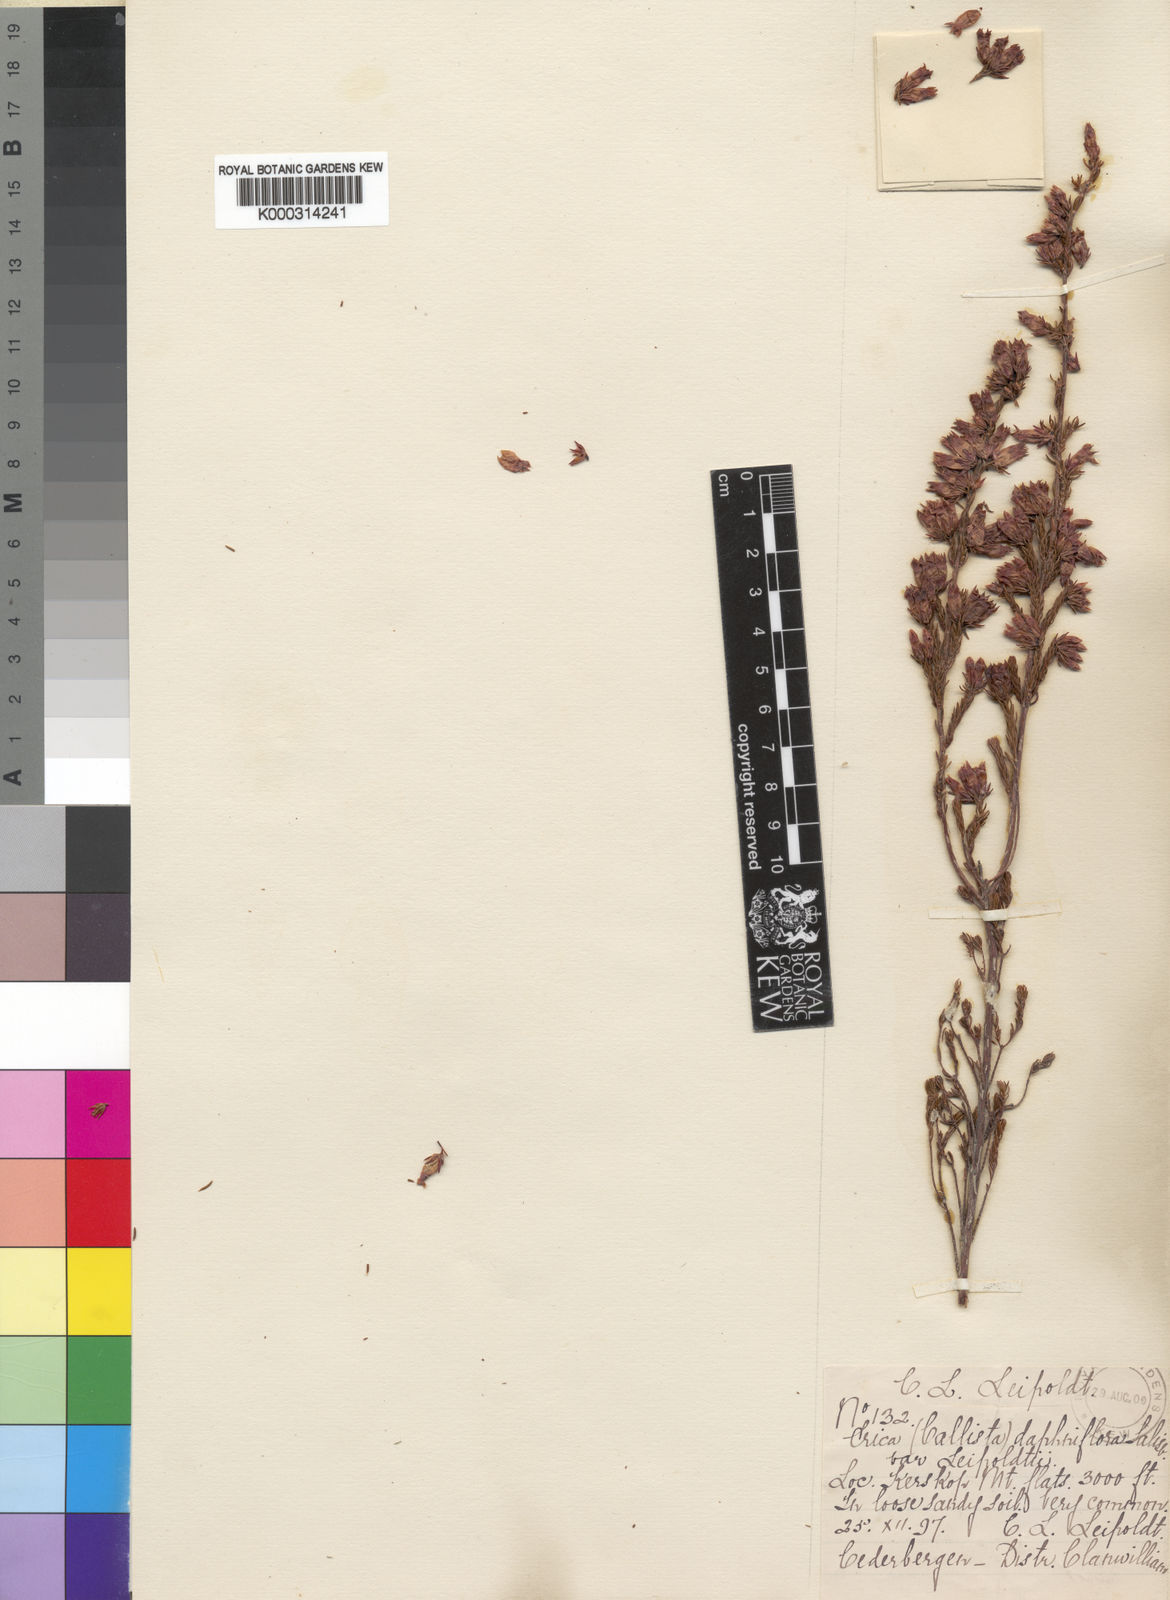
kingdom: Plantae
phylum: Tracheophyta
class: Magnoliopsida
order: Ericales
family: Ericaceae
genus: Erica
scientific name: Erica daphniflora
